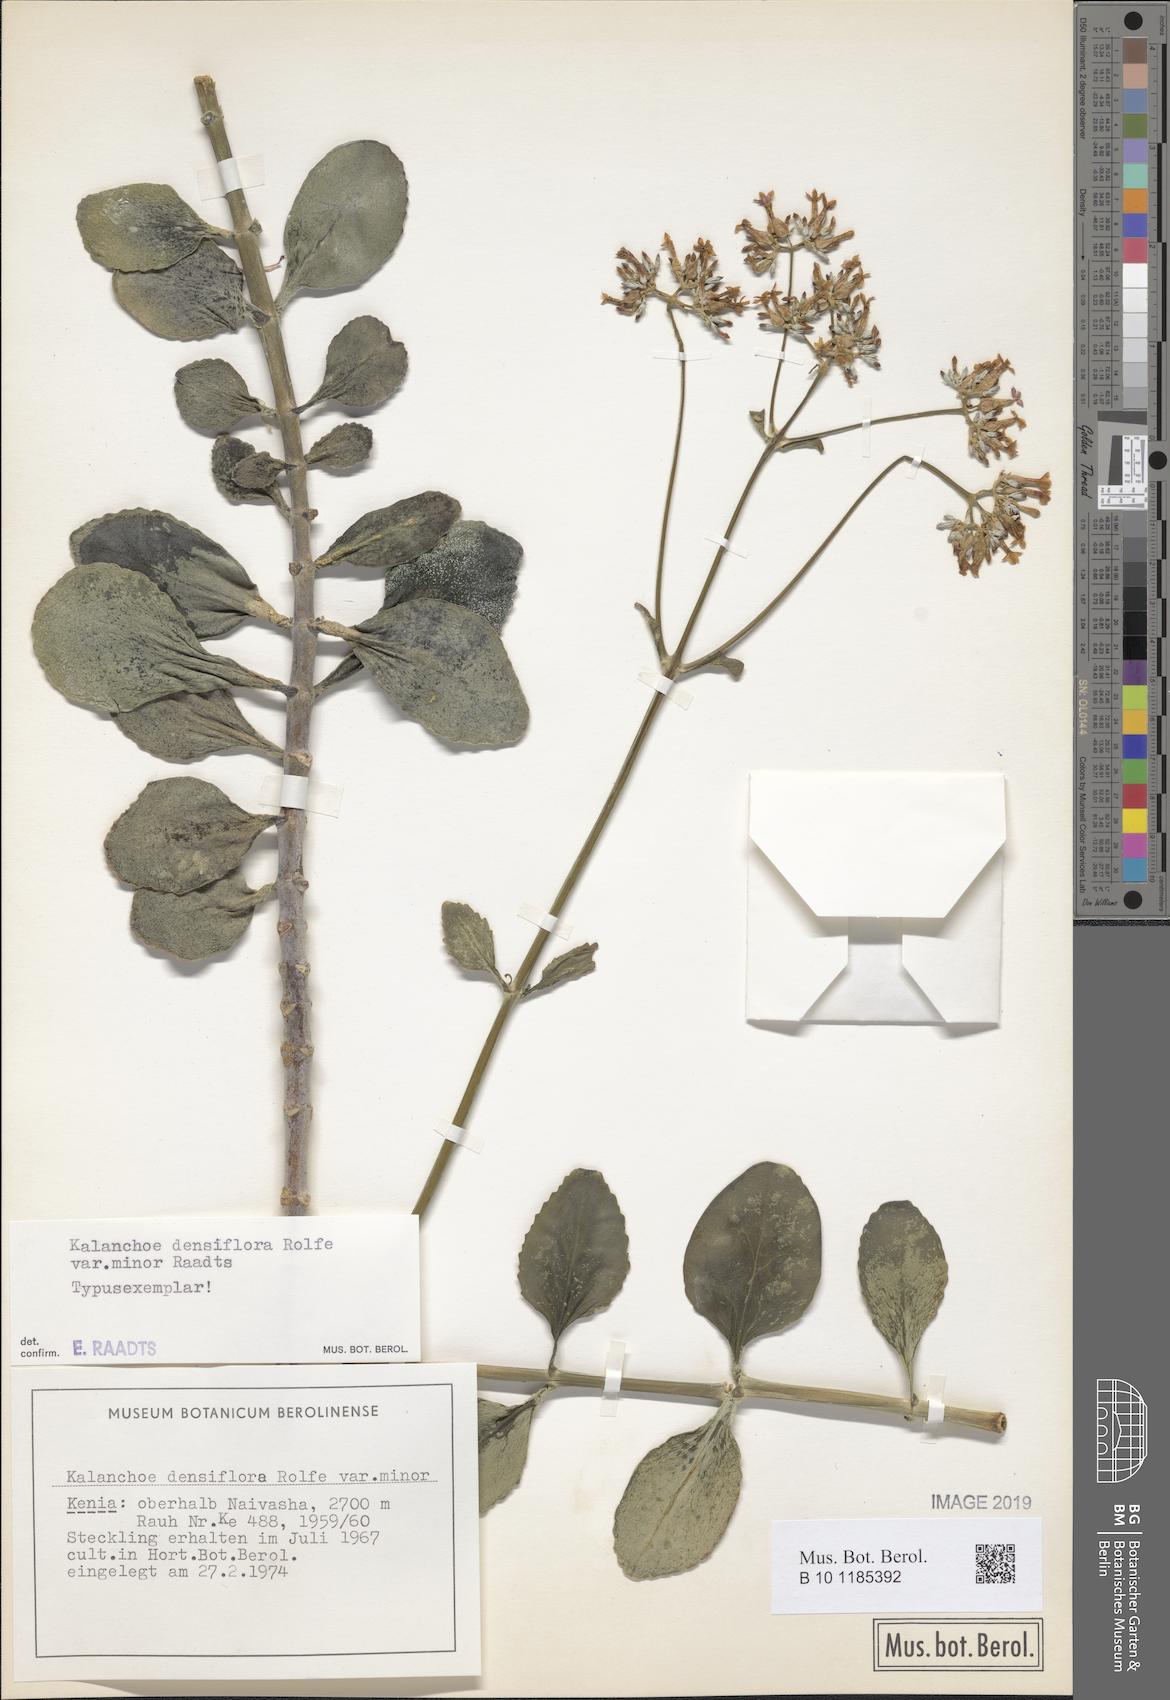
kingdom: Plantae
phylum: Tracheophyta
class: Magnoliopsida
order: Saxifragales
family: Crassulaceae
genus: Kalanchoe
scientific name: Kalanchoe densiflora
